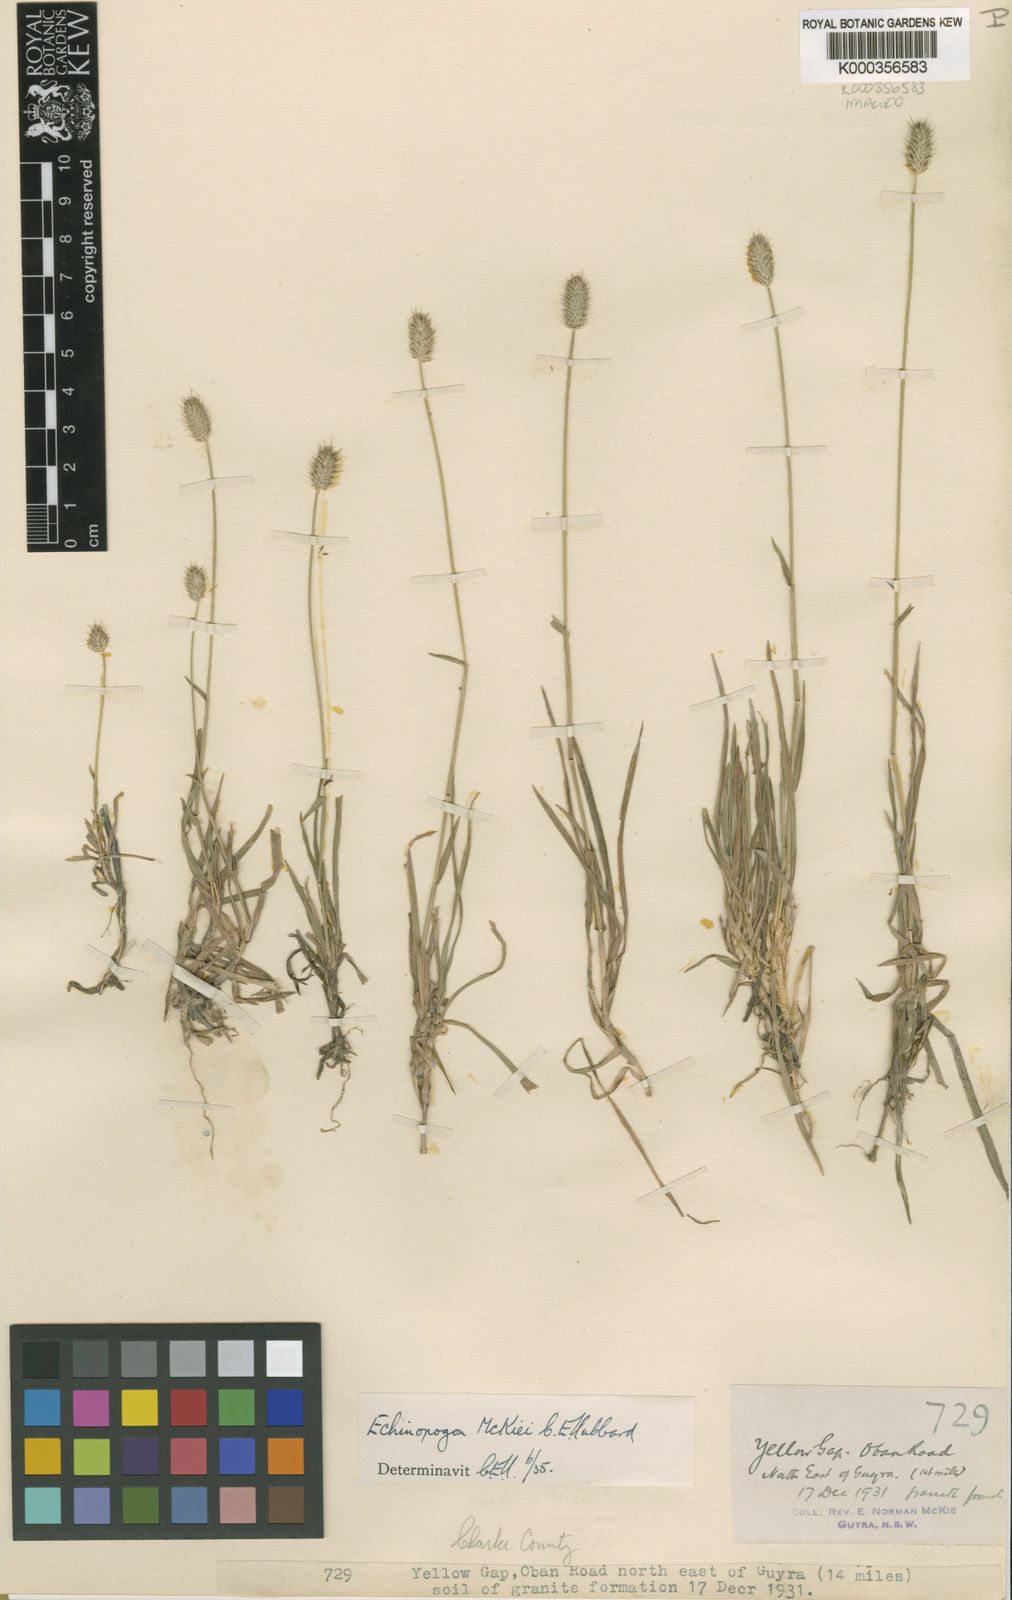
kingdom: Plantae
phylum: Tracheophyta
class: Liliopsida
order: Poales
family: Poaceae
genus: Echinopogon
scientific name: Echinopogon mckiei
